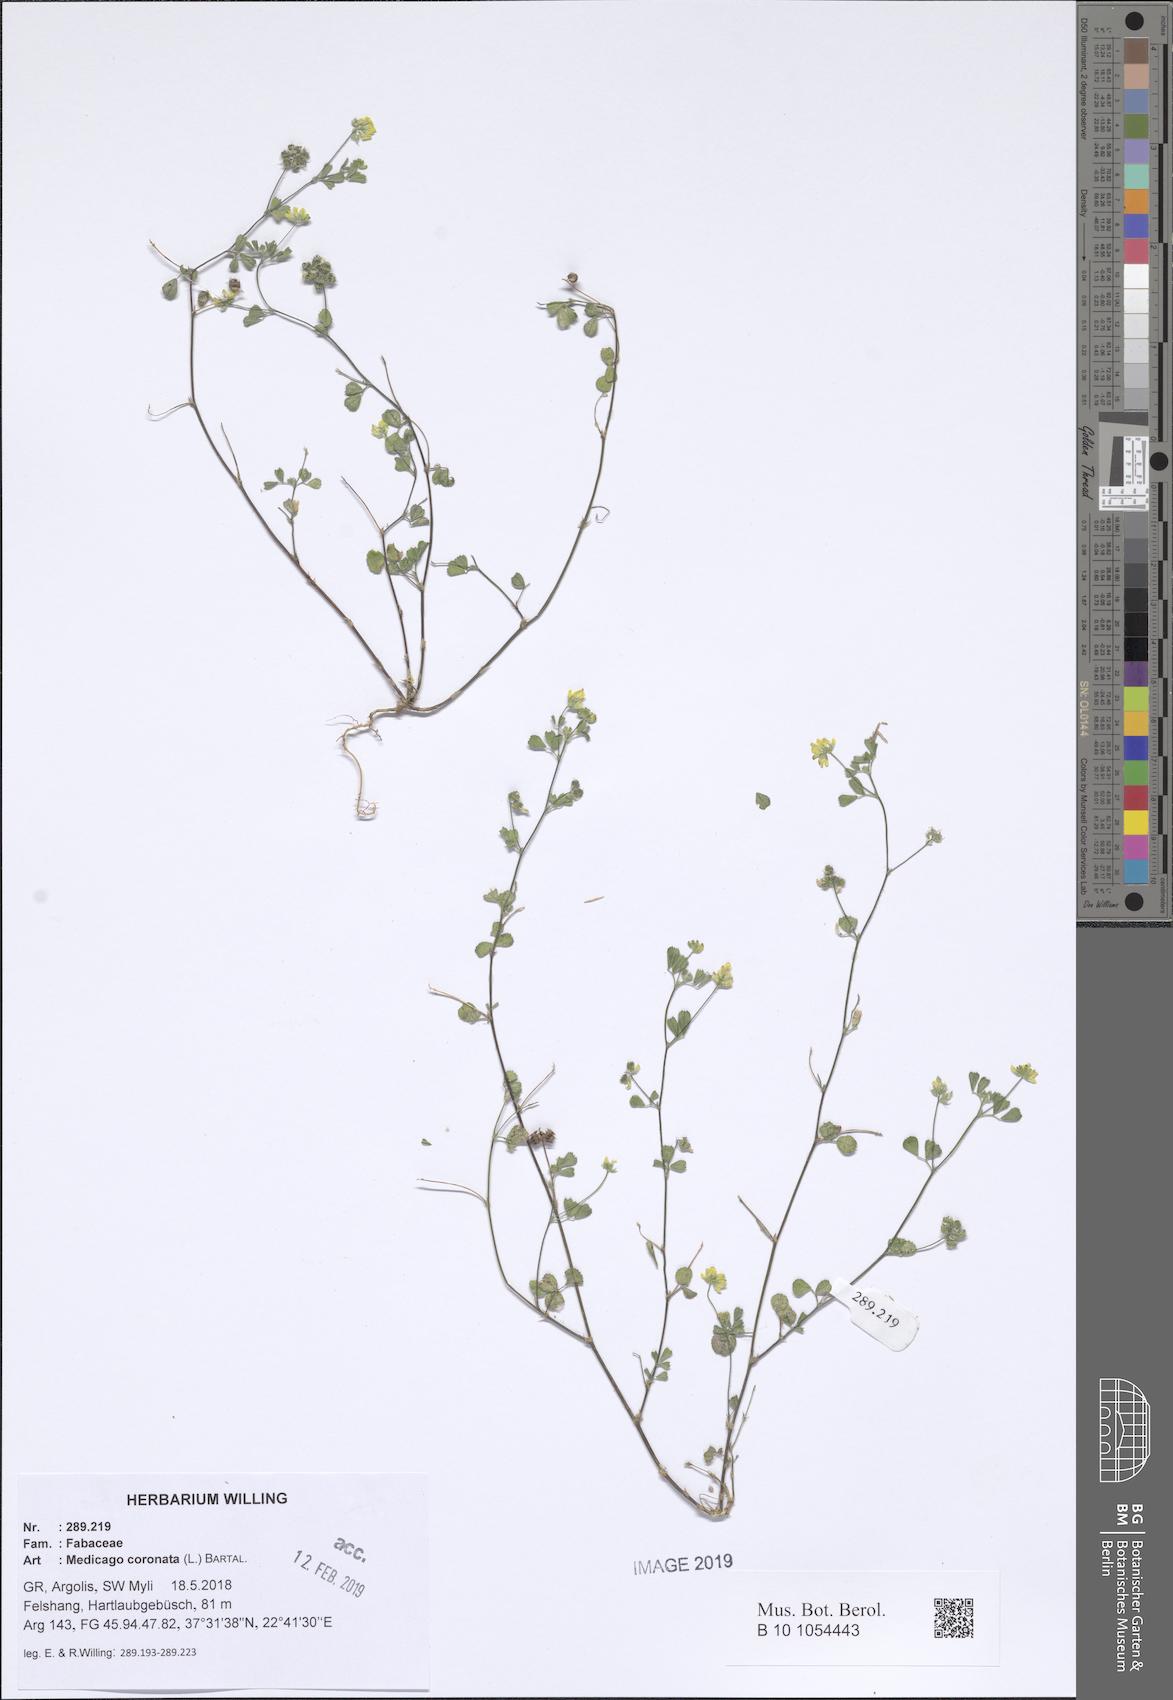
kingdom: Plantae
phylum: Tracheophyta
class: Magnoliopsida
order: Fabales
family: Fabaceae
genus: Medicago
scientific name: Medicago coronata
